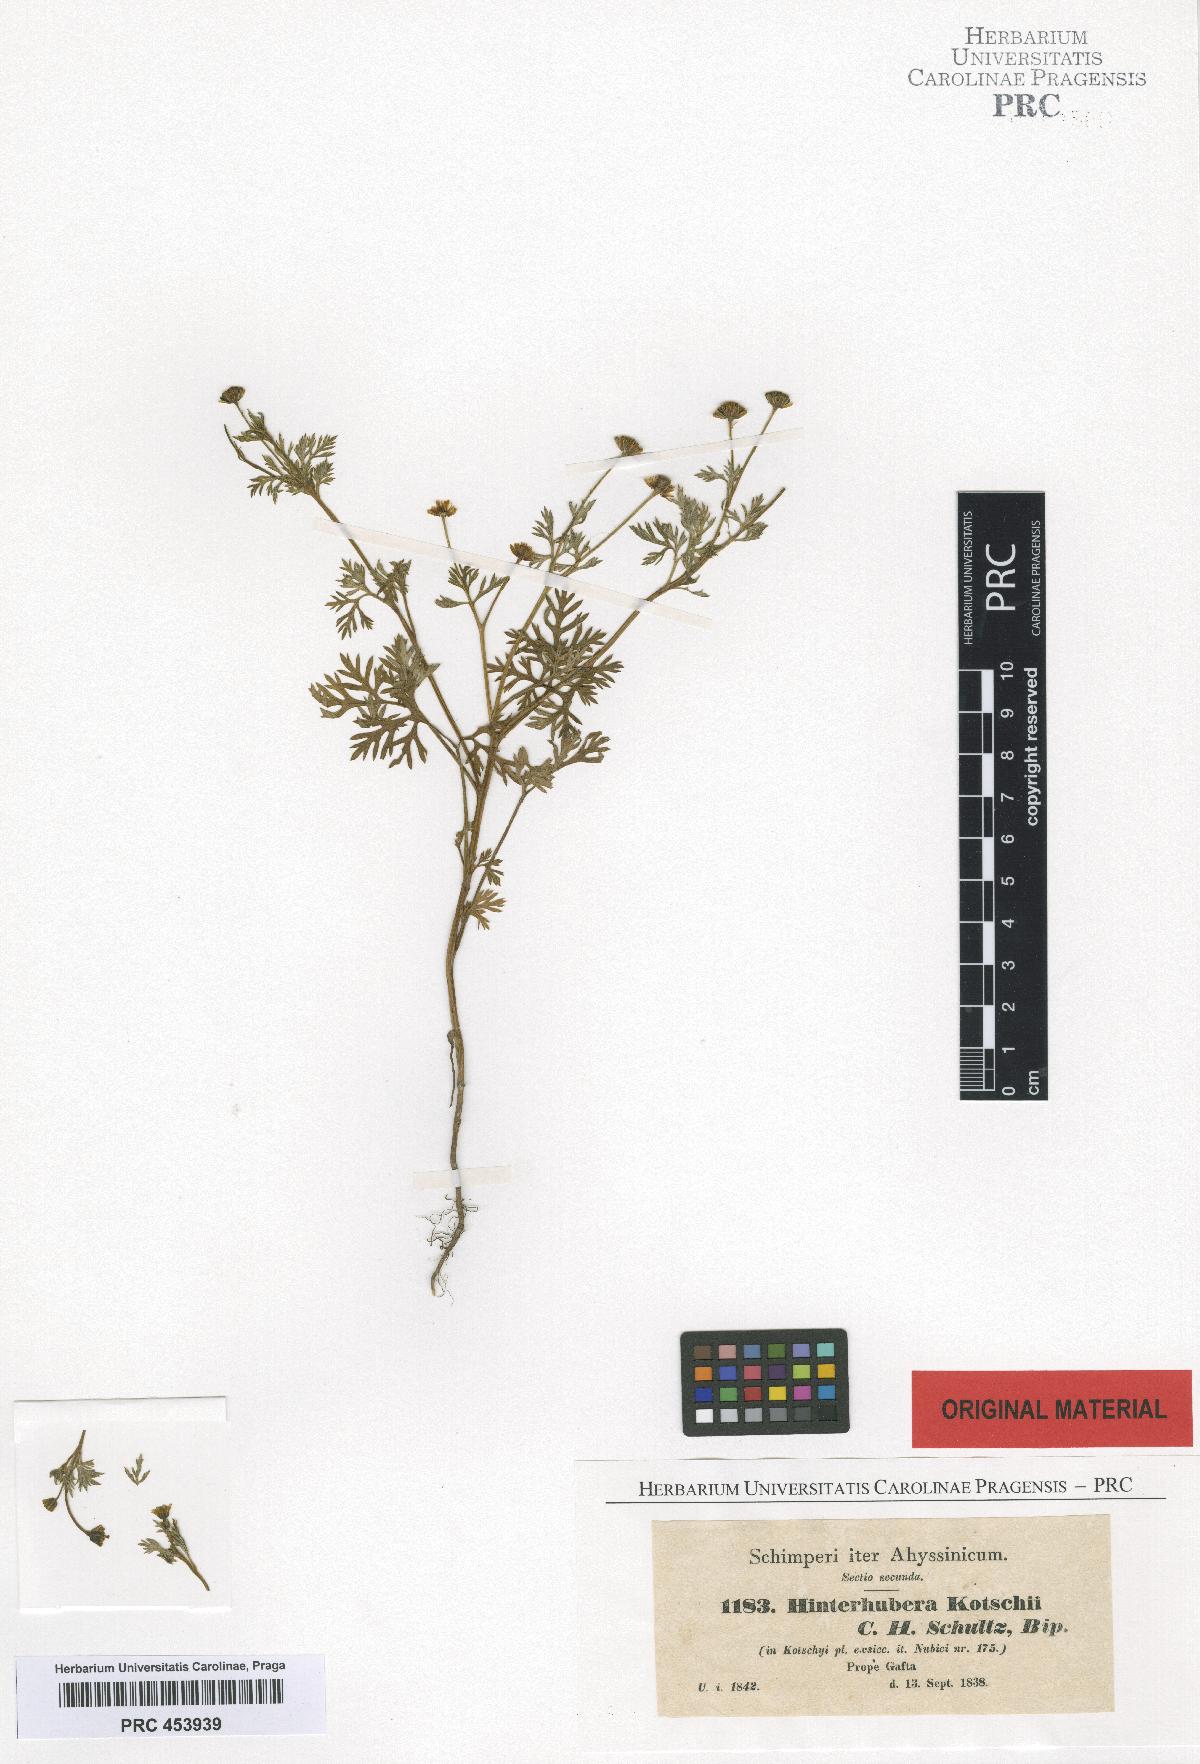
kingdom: Plantae
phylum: Tracheophyta
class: Magnoliopsida
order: Asterales
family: Asteraceae
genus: Chrysanthellum
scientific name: Chrysanthellum indicum
